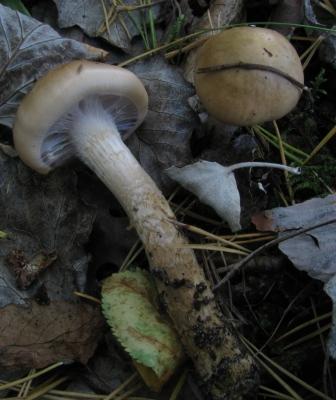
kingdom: Fungi
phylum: Basidiomycota
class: Agaricomycetes
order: Agaricales
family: Cortinariaceae
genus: Cortinarius
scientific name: Cortinarius trivialis
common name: brunslimet slørhat
